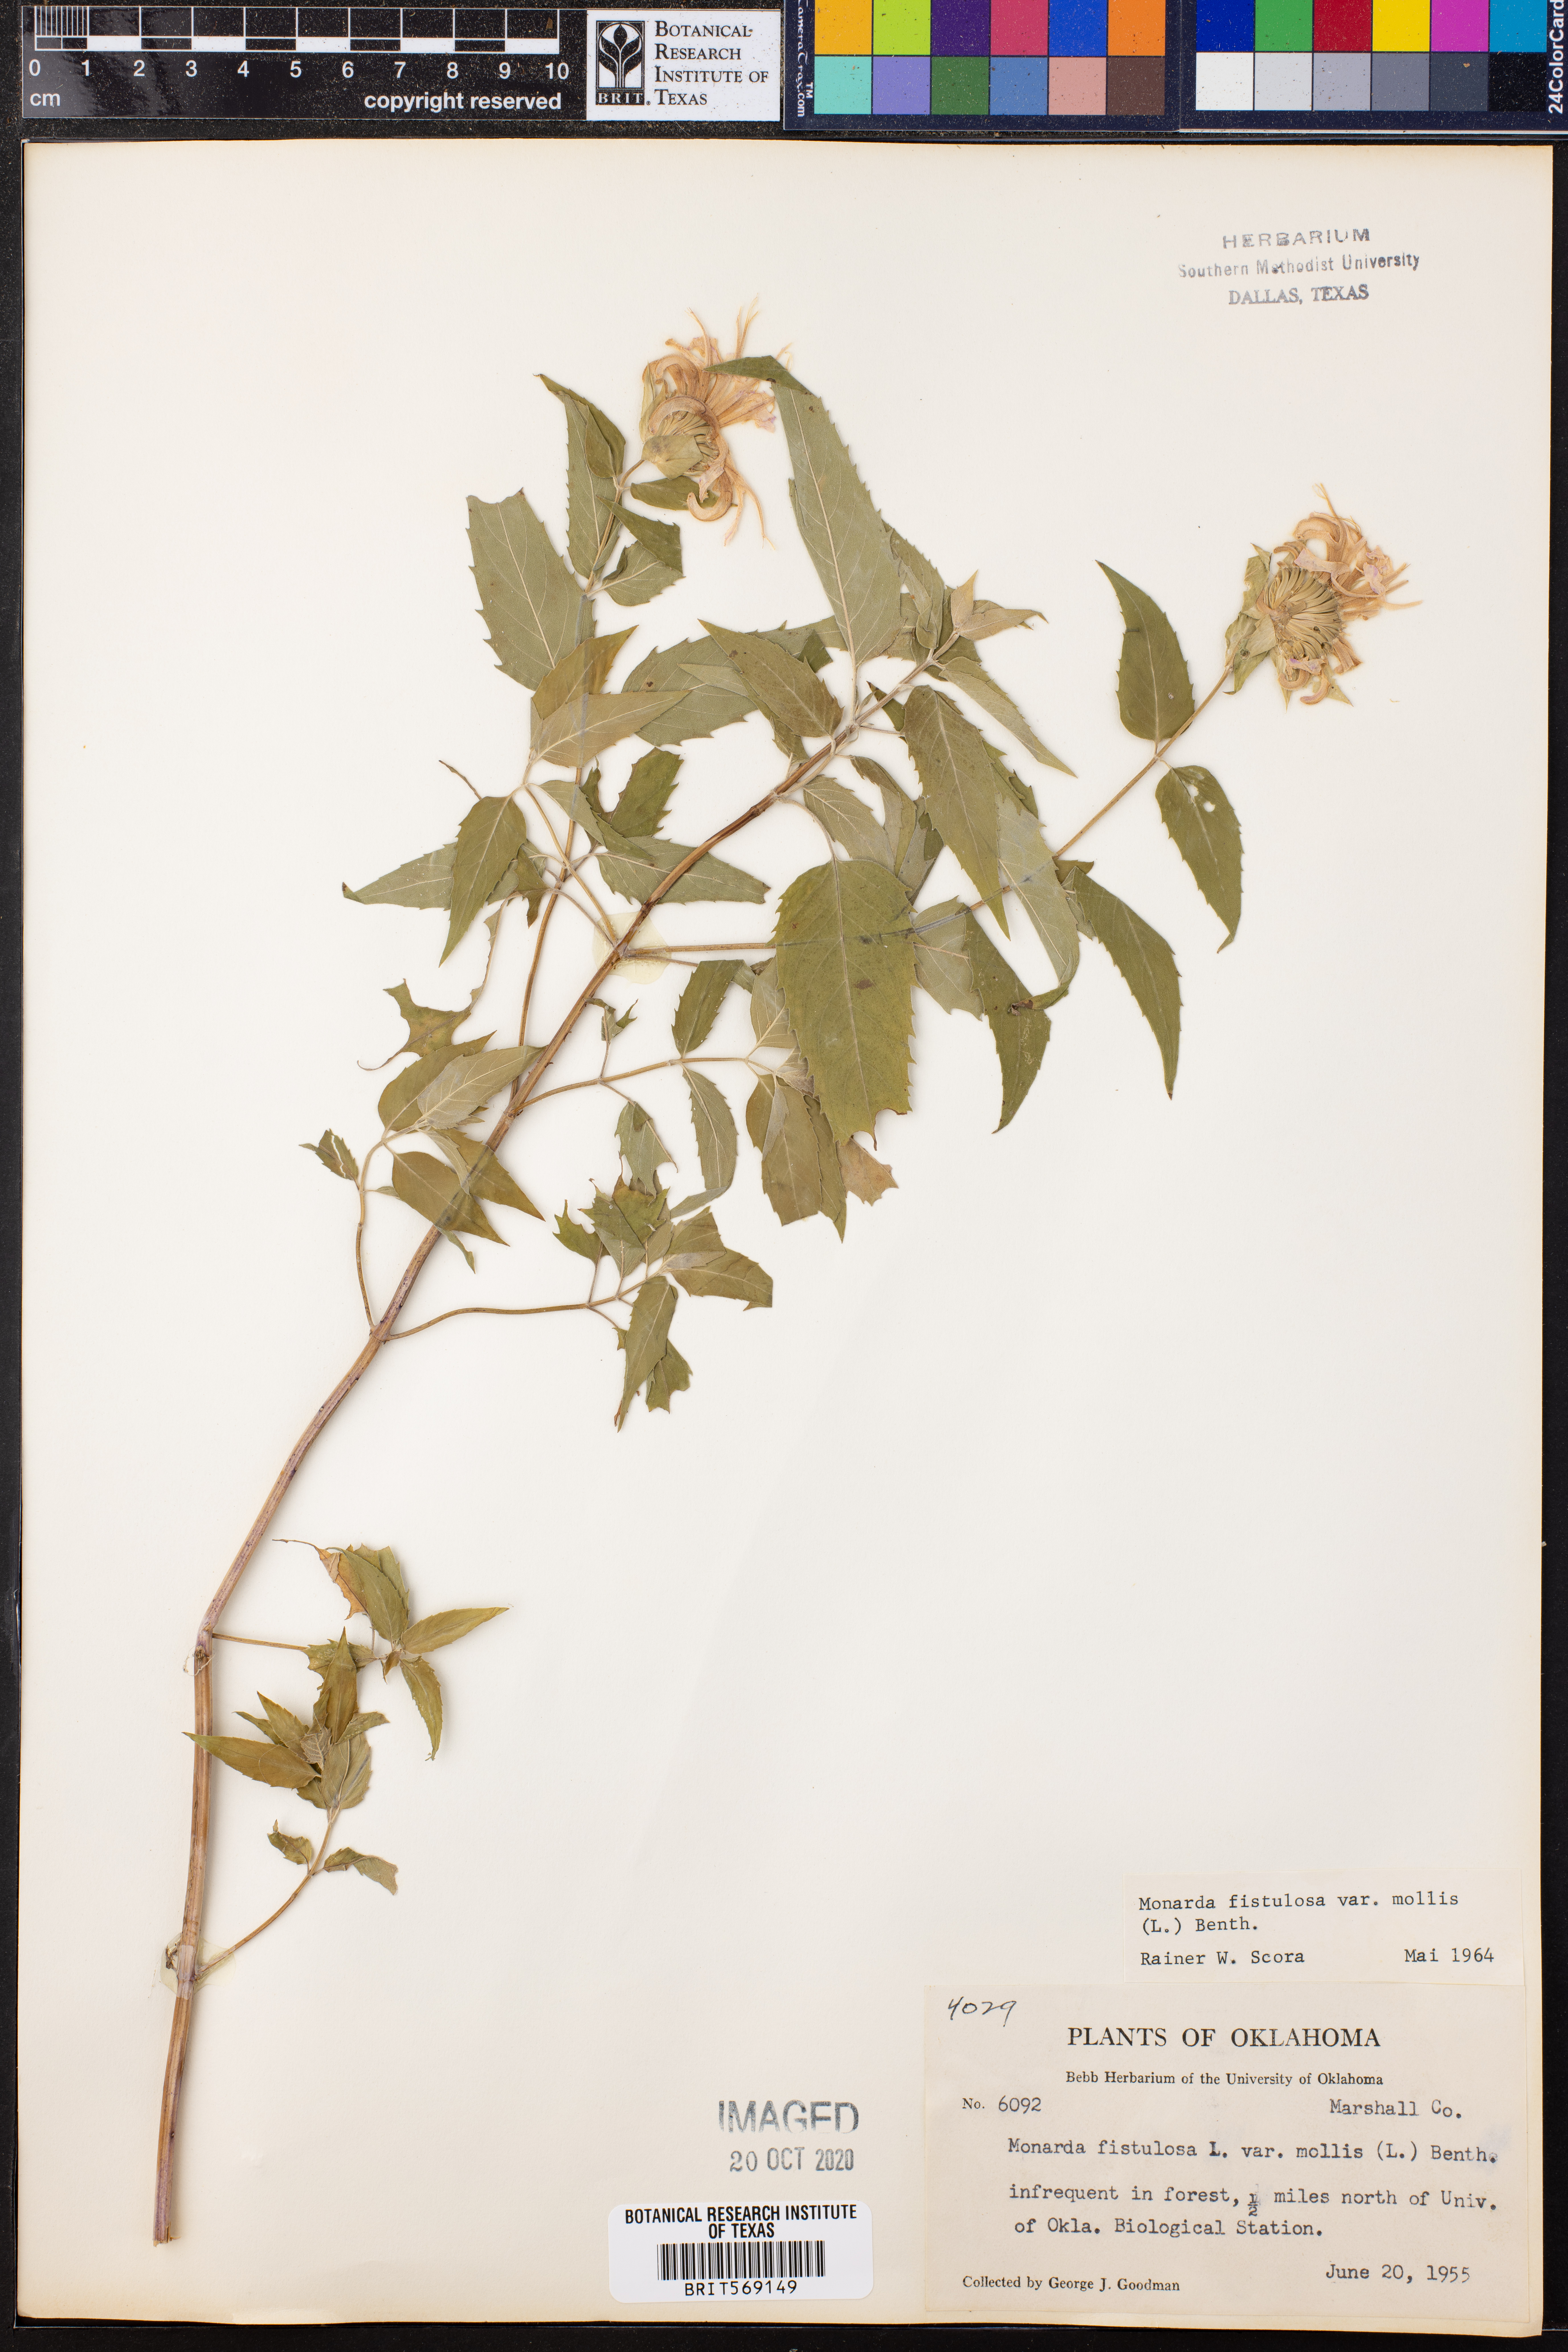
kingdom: Plantae
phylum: Tracheophyta
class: Magnoliopsida
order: Lamiales
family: Lamiaceae
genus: Monarda
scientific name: Monarda fistulosa
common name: Purple beebalm
